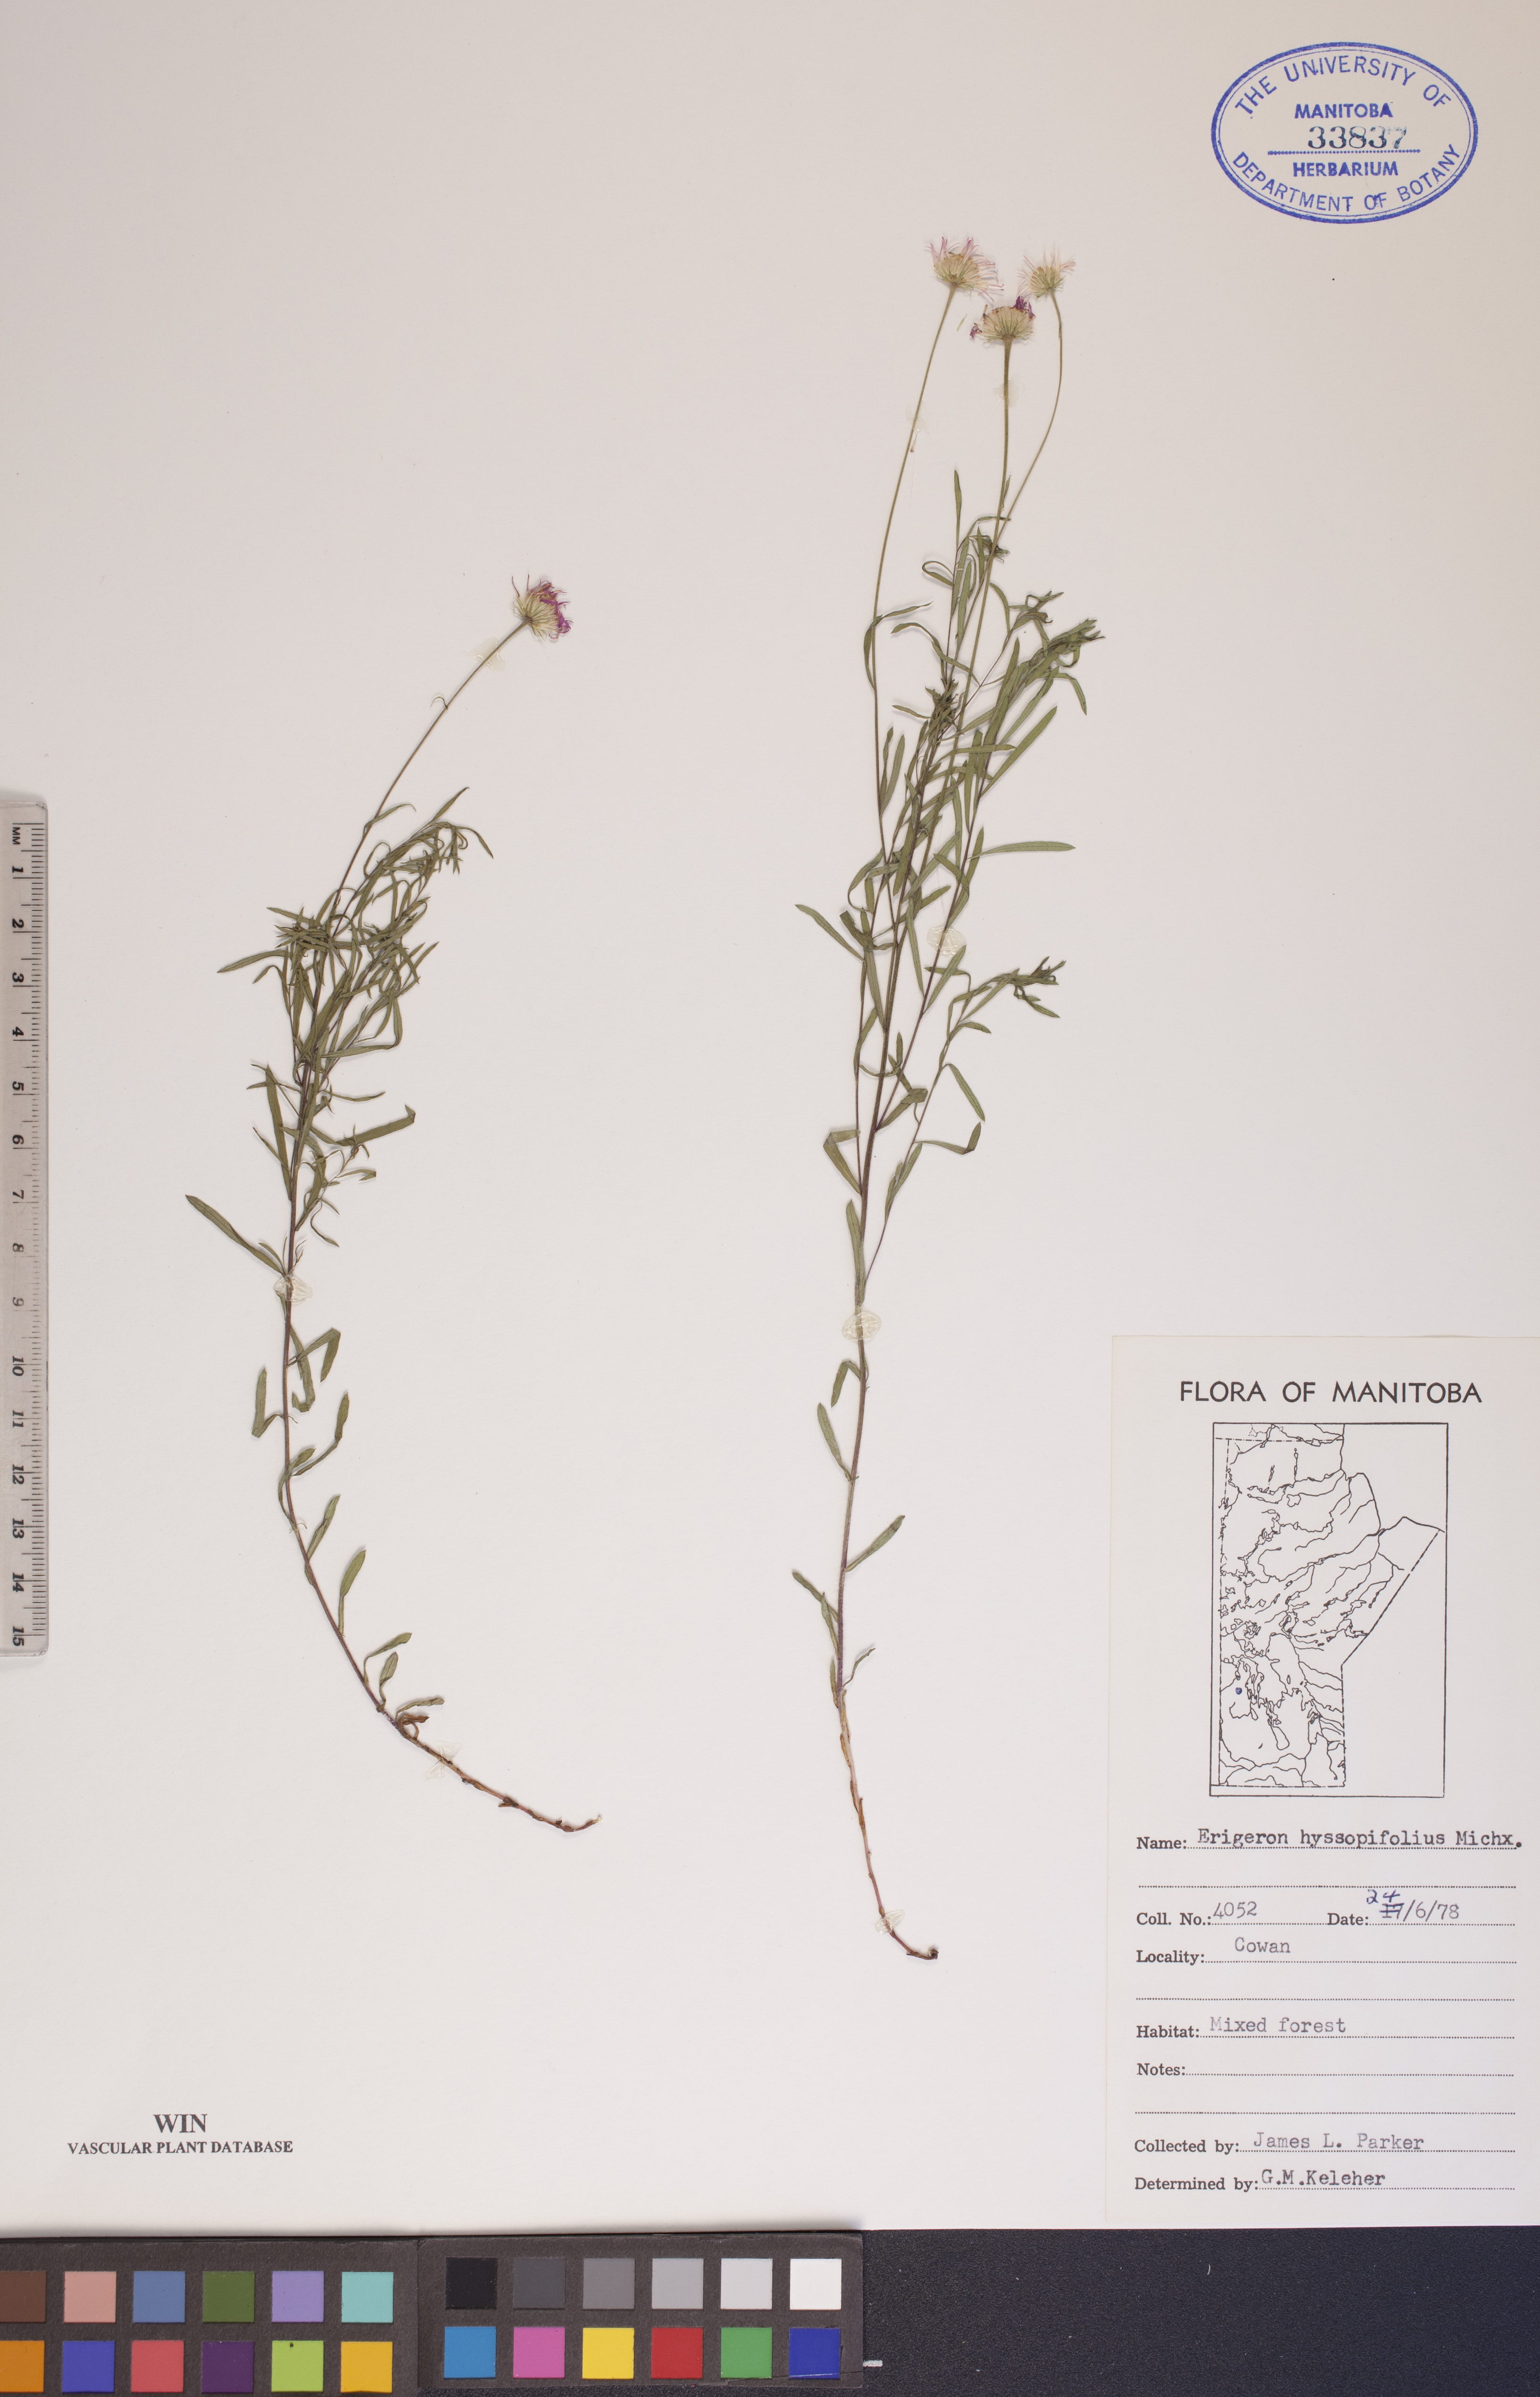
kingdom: Plantae
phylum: Tracheophyta
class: Magnoliopsida
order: Asterales
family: Asteraceae
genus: Erigeron
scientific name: Erigeron hyssopifolius
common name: Daisy fleabane
